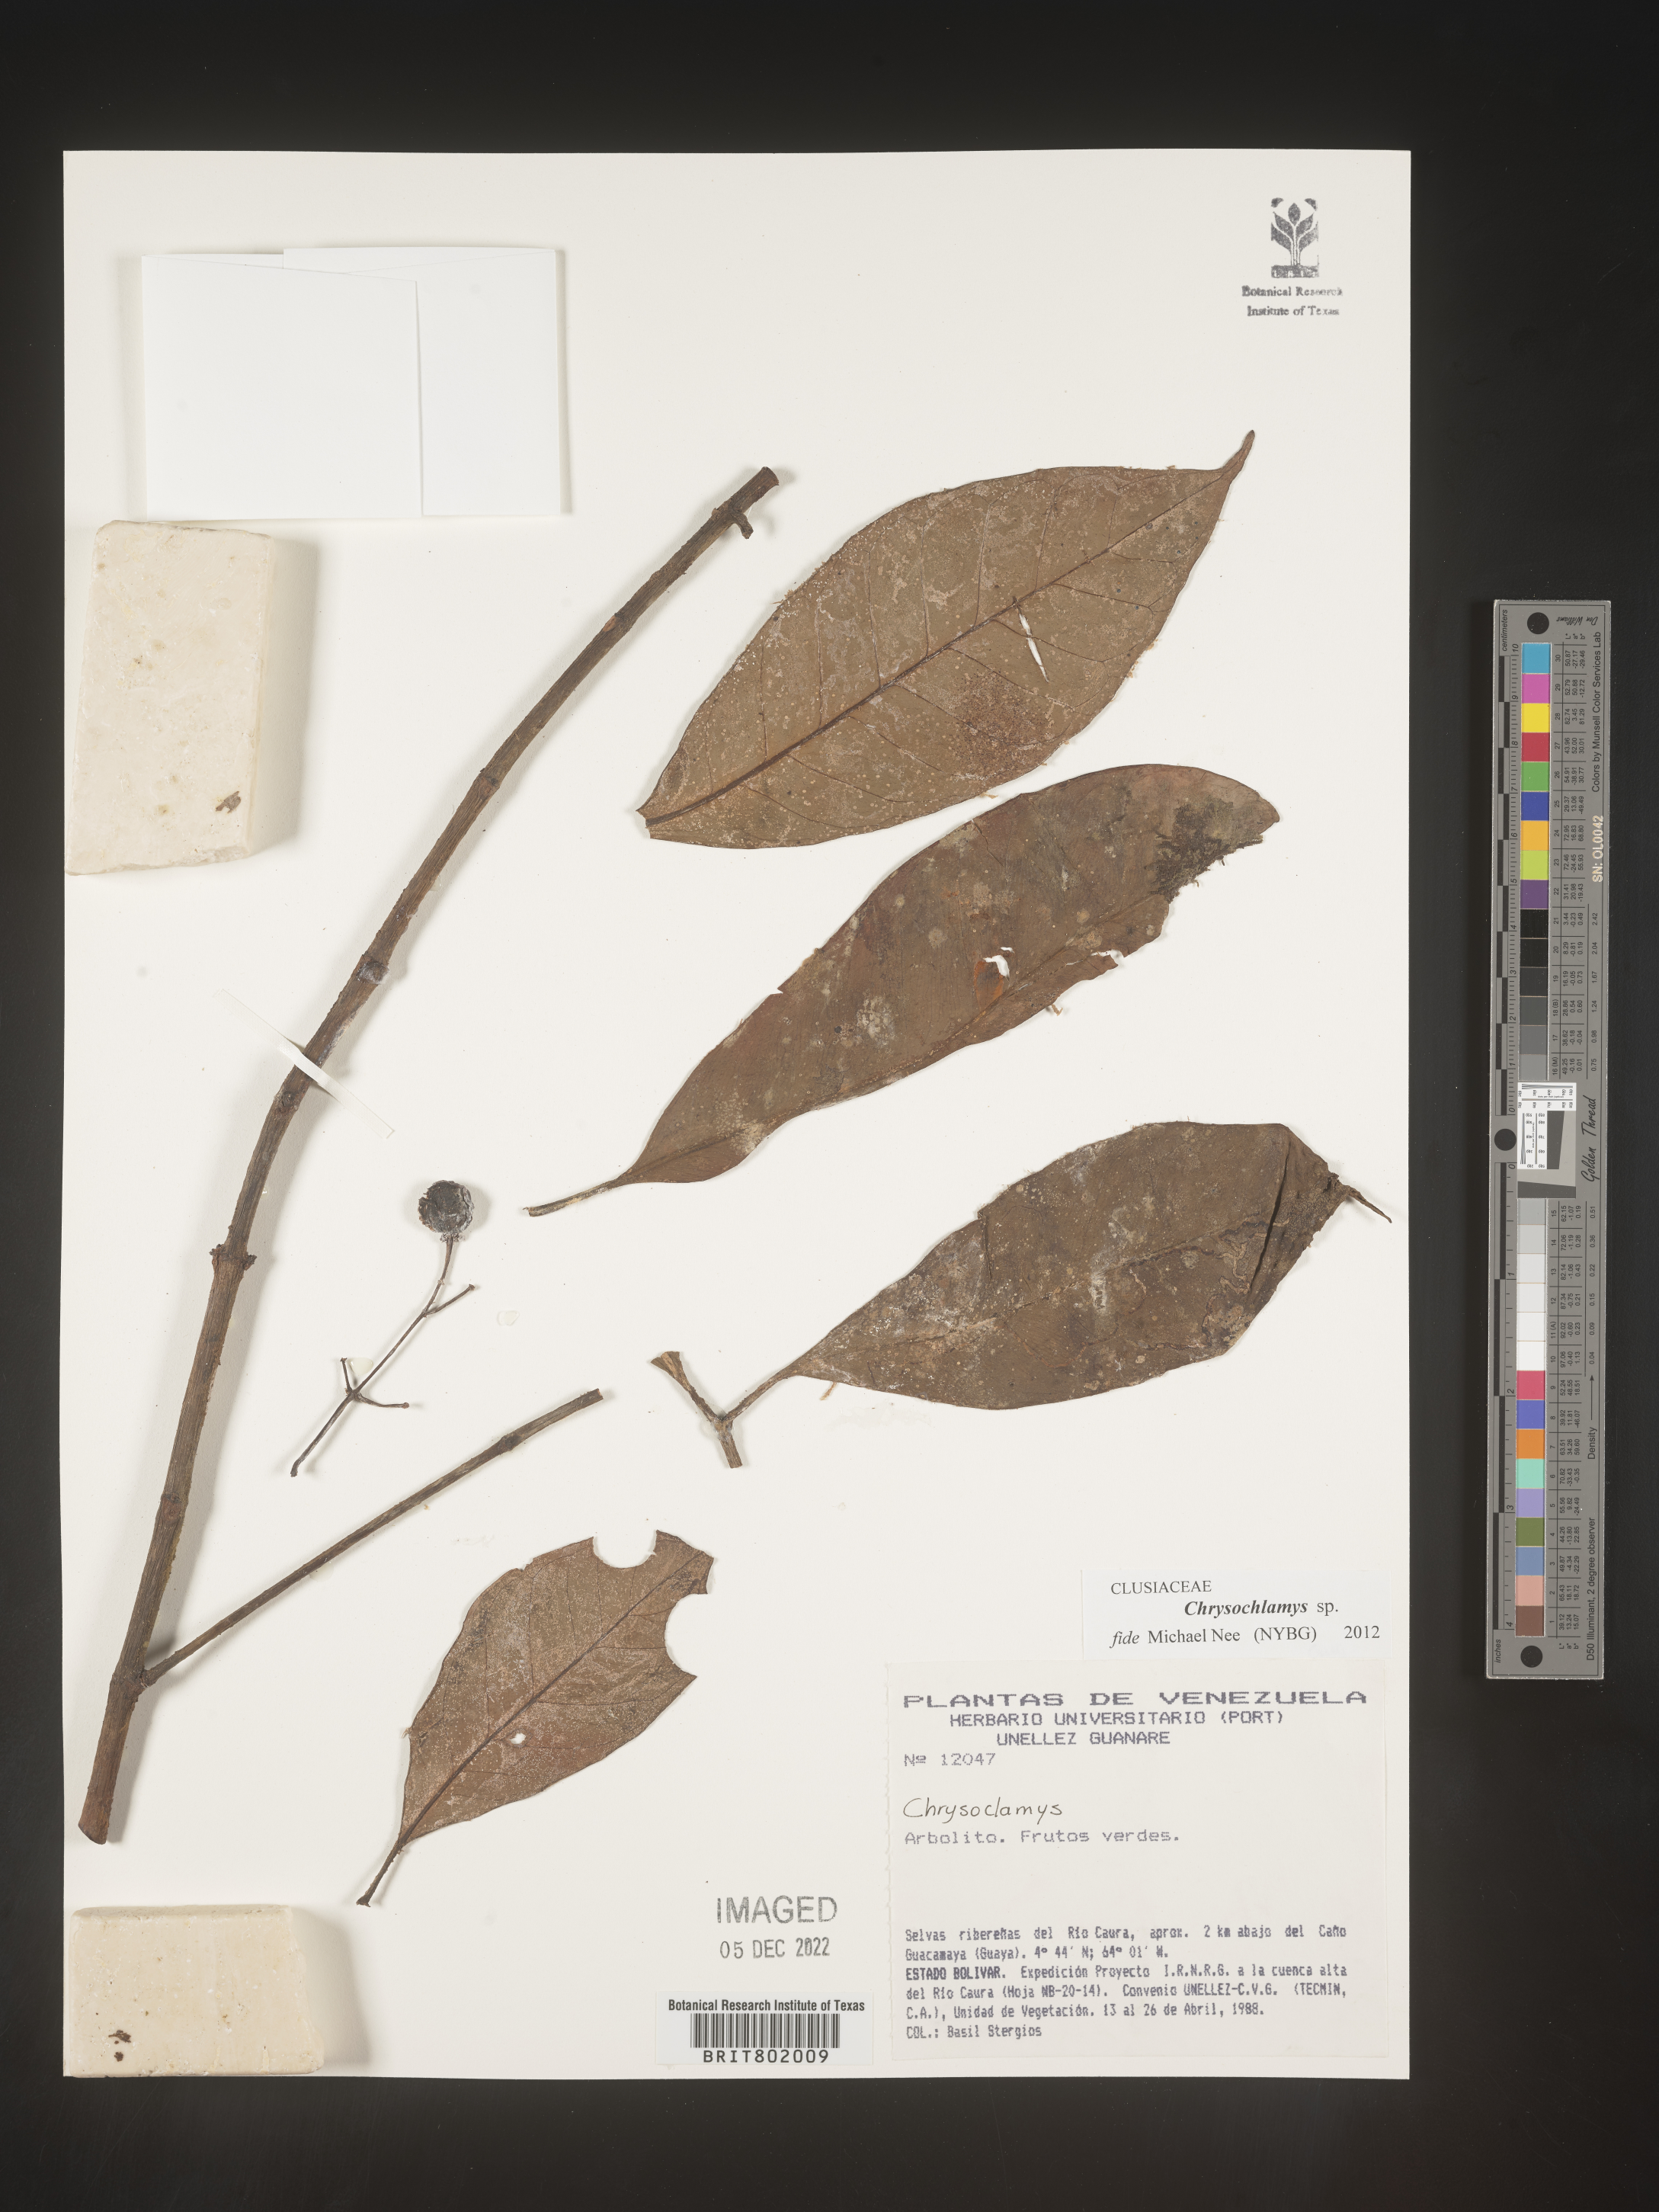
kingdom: Plantae
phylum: Tracheophyta
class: Magnoliopsida
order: Malpighiales
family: Clusiaceae
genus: Chrysochlamys
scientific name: Chrysochlamys
